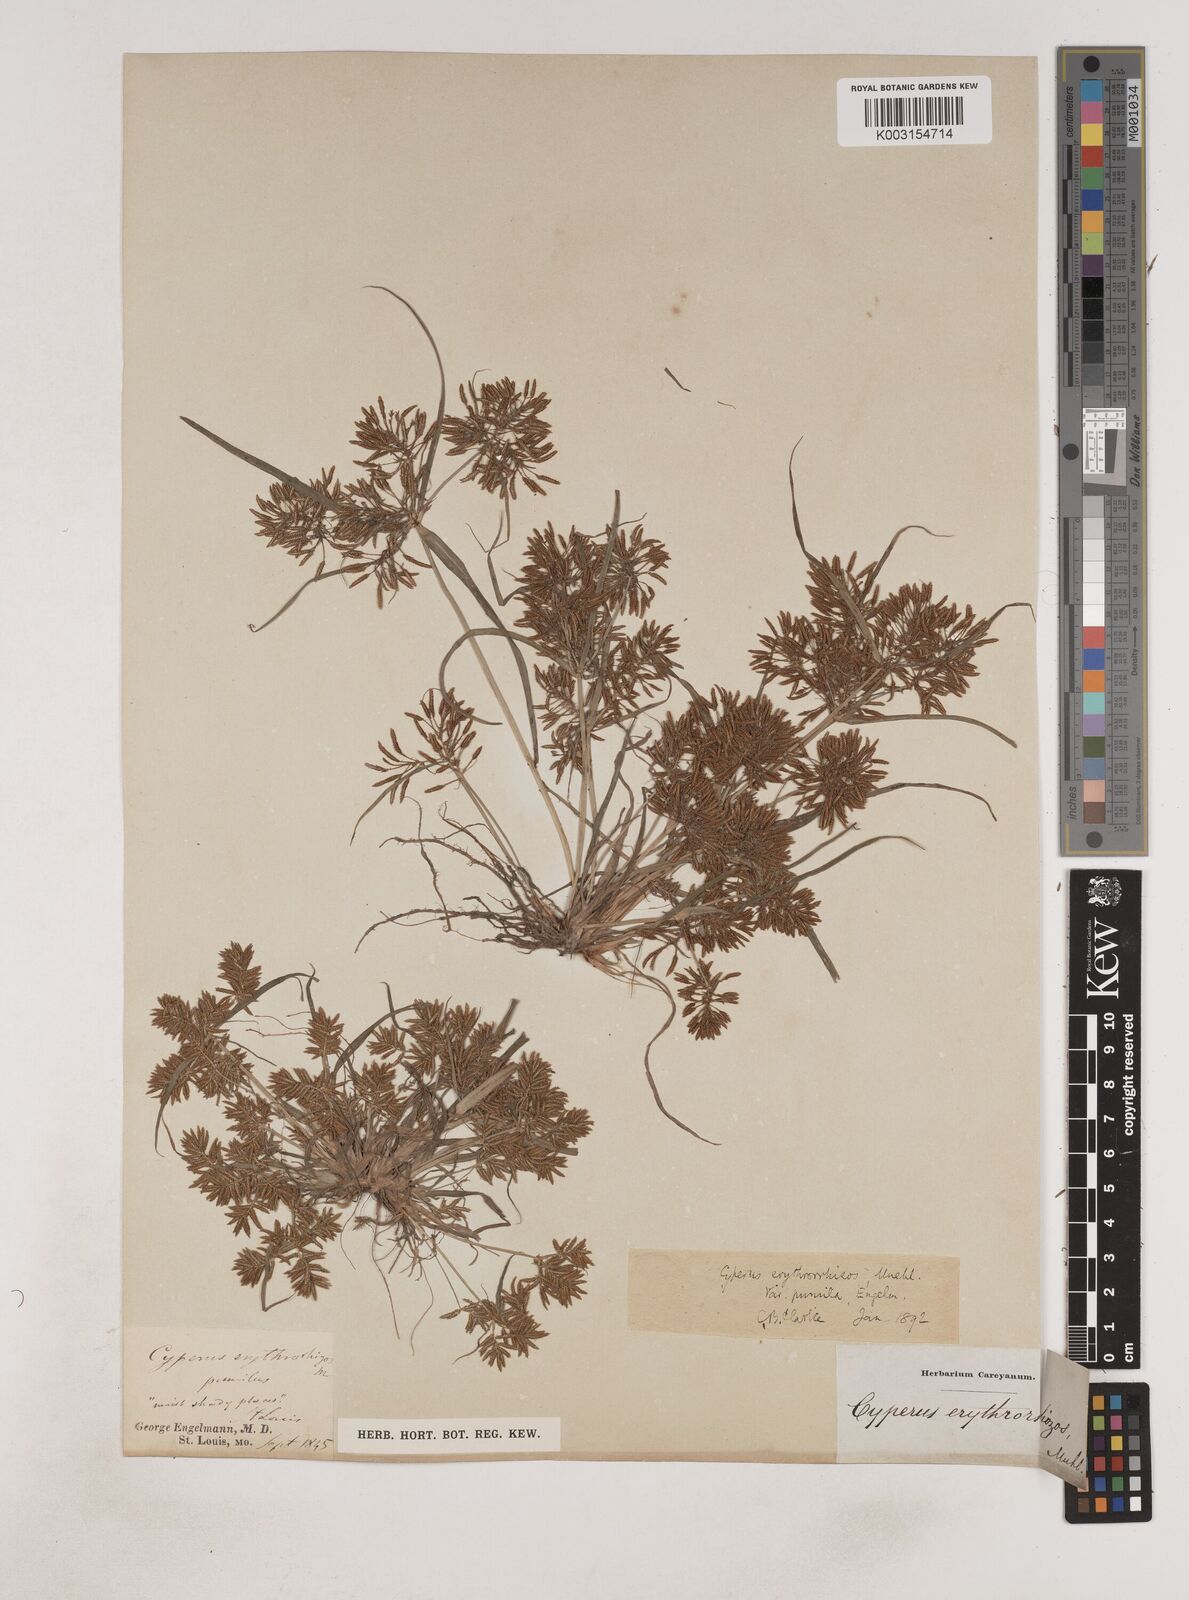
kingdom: Plantae
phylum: Tracheophyta
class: Liliopsida
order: Poales
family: Cyperaceae
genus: Cyperus
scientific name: Cyperus erythrorhizos
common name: Red-root flat sedge
